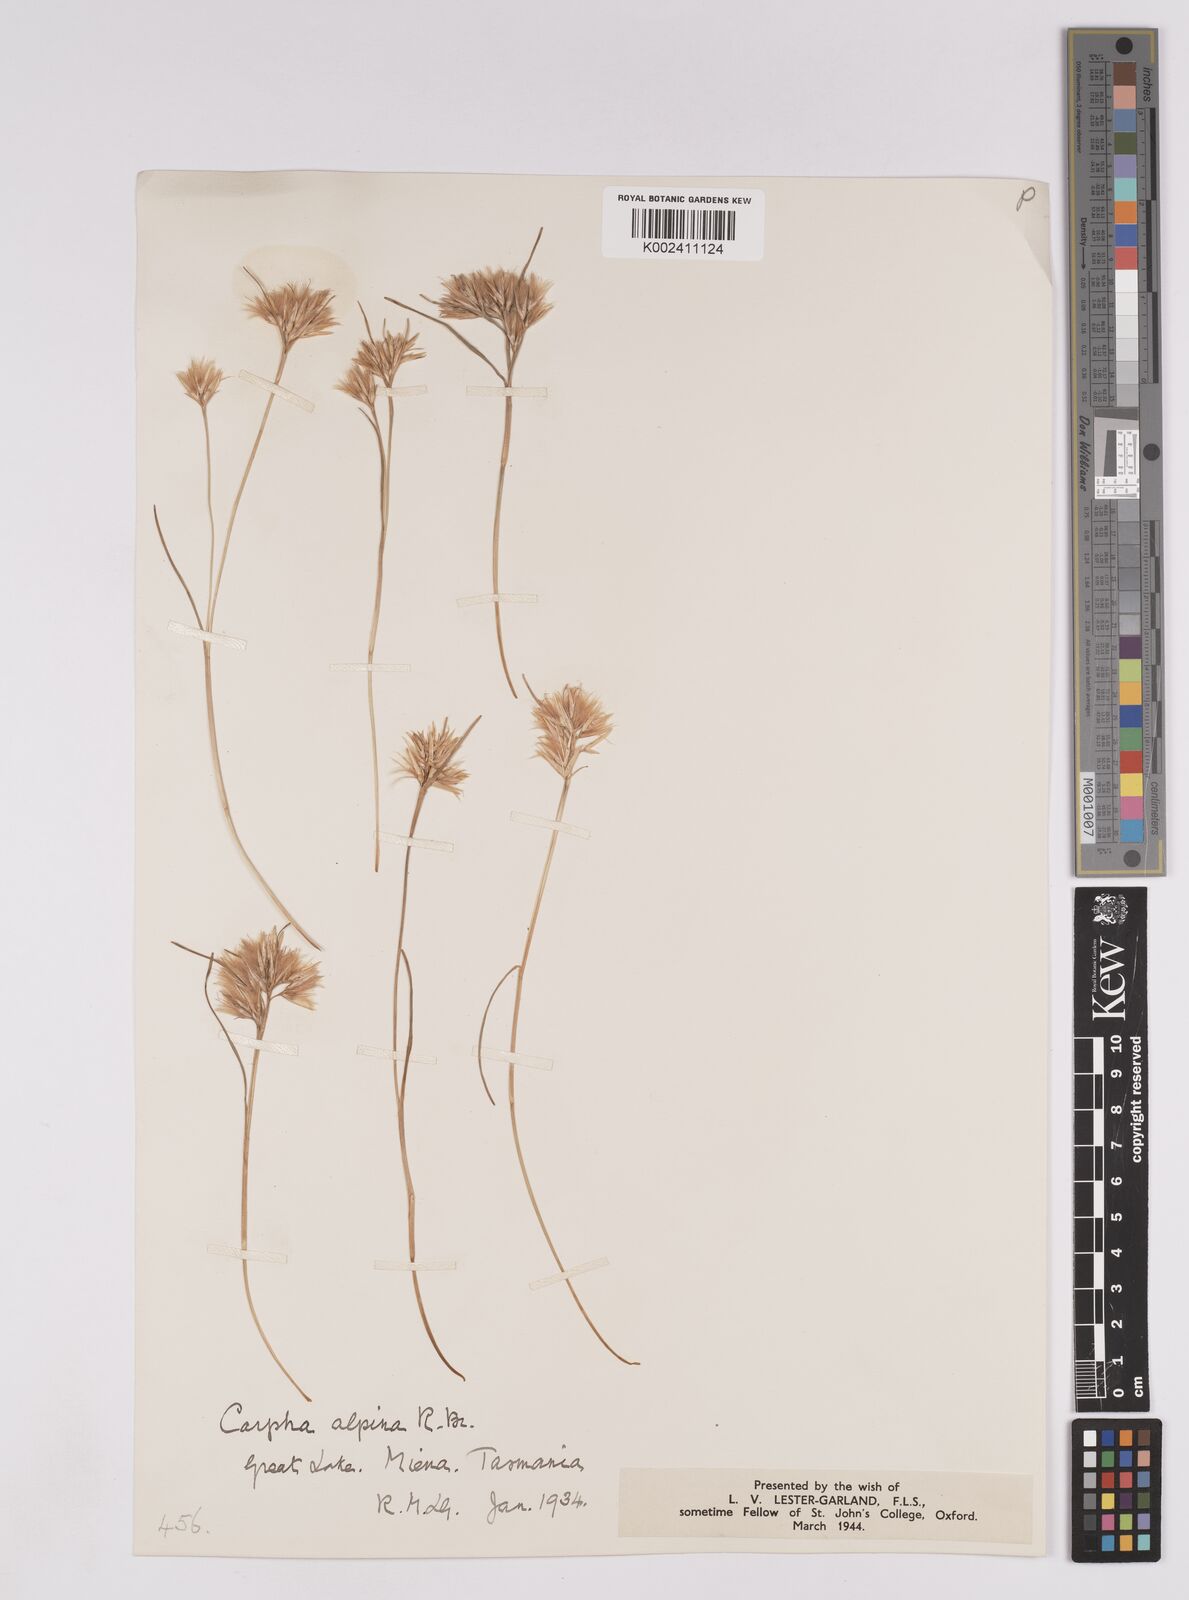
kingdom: Plantae
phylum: Tracheophyta
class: Liliopsida
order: Poales
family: Cyperaceae
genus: Carpha
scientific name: Carpha alpina
